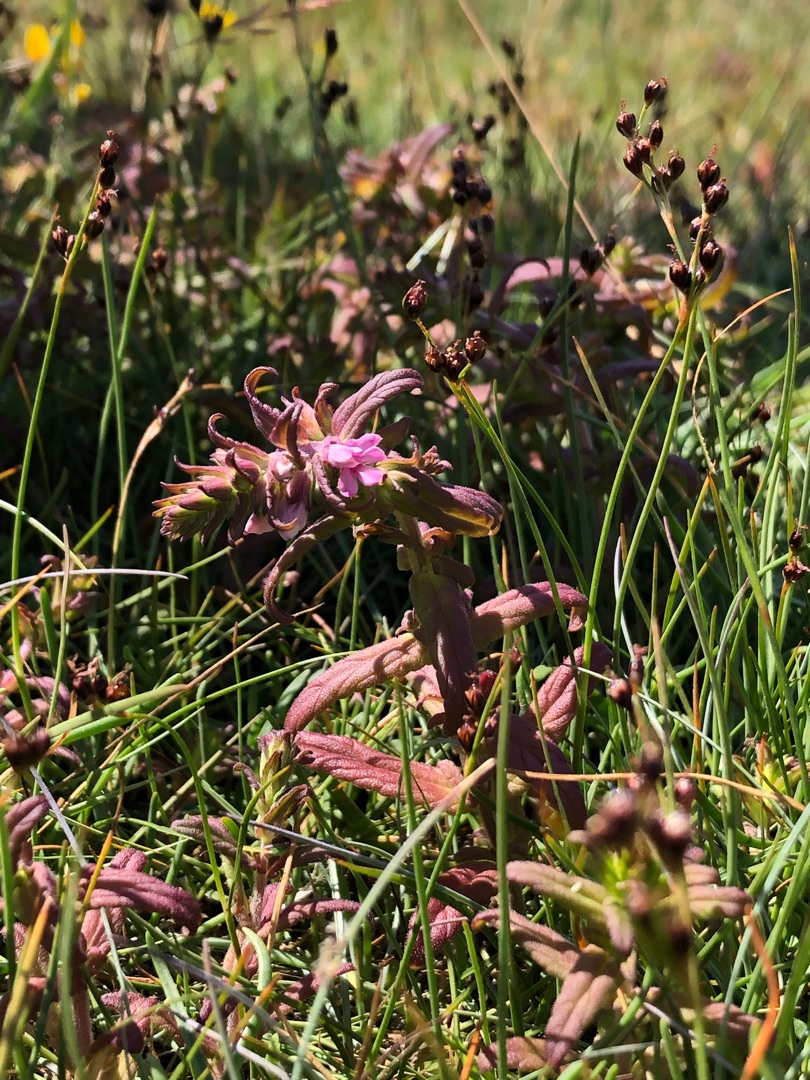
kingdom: Plantae
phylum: Tracheophyta
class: Magnoliopsida
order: Lamiales
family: Orobanchaceae
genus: Odontites
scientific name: Odontites litoralis
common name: Strand-rødtop
